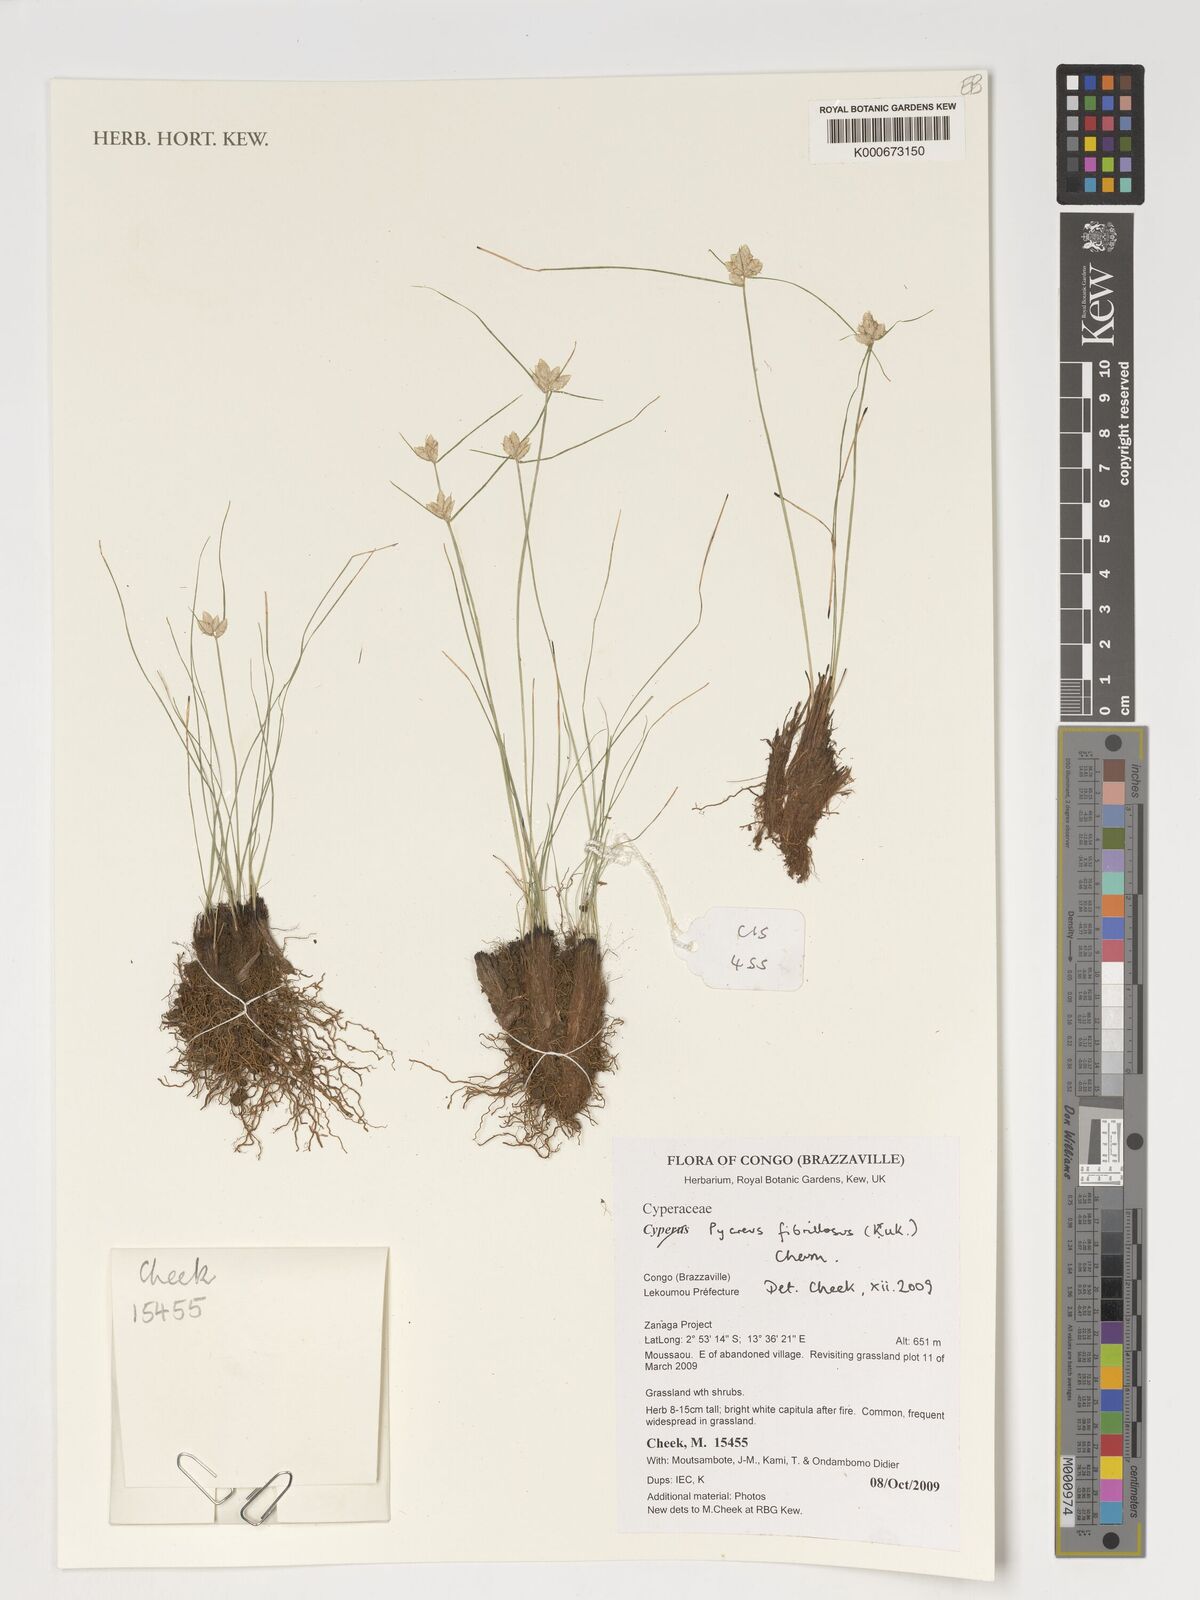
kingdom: Plantae
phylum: Tracheophyta
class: Liliopsida
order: Poales
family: Cyperaceae
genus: Cyperus
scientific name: Cyperus nigricans
